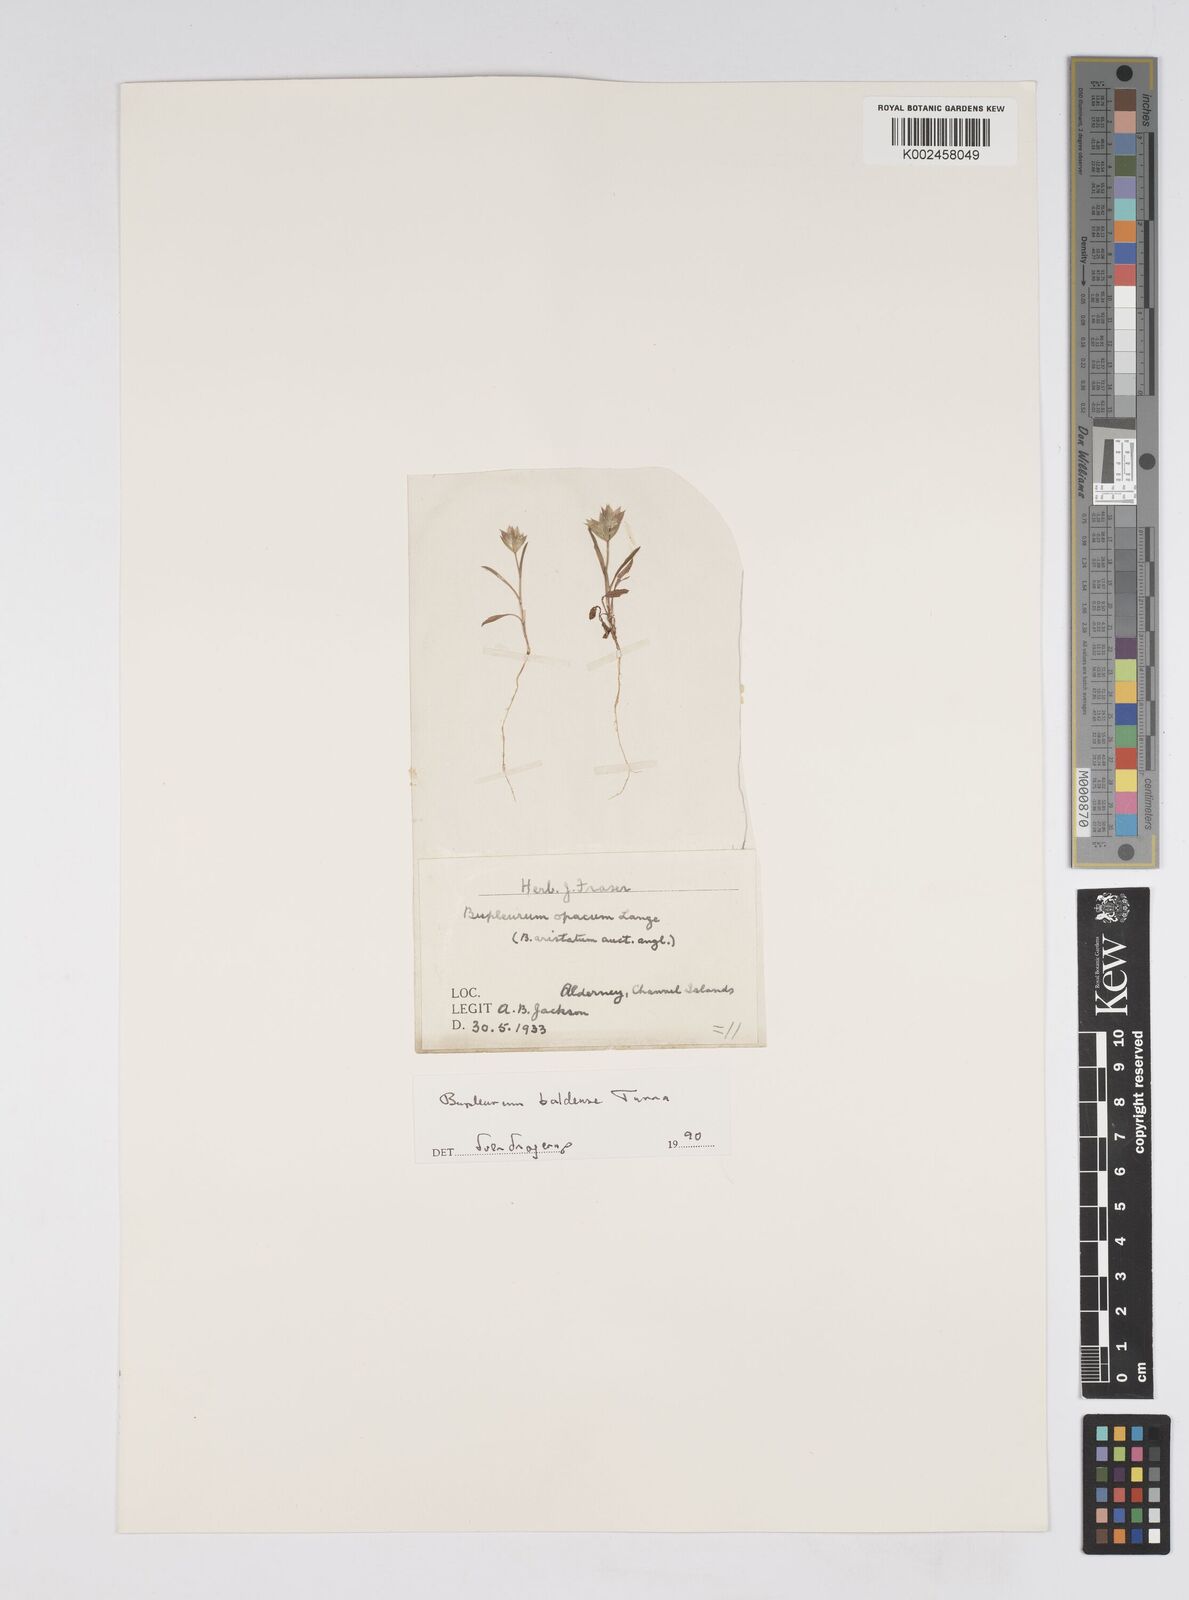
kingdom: Plantae
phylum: Tracheophyta
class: Magnoliopsida
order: Apiales
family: Apiaceae
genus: Bupleurum
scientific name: Bupleurum baldense
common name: Small hare's-ear
